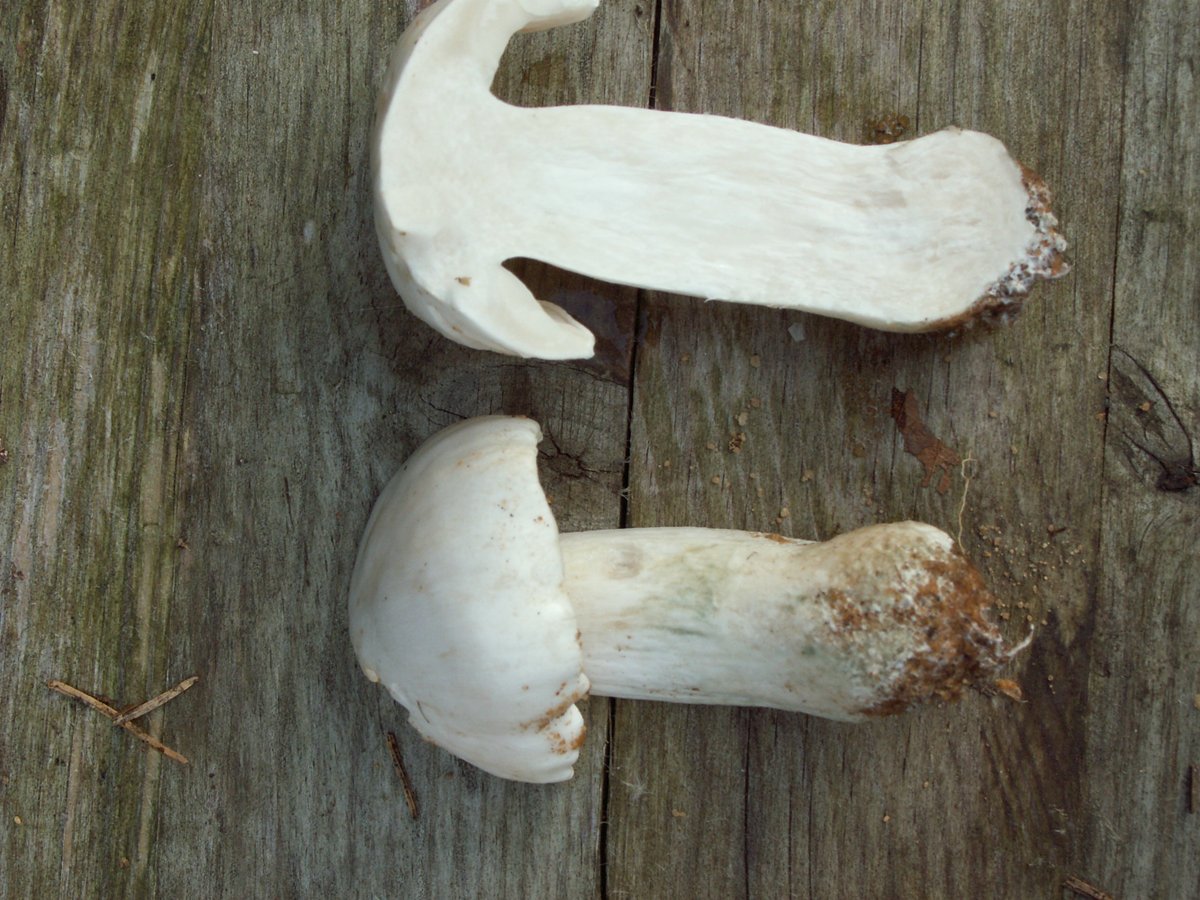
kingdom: Fungi
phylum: Basidiomycota
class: Agaricomycetes
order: Agaricales
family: Tricholomataceae
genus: Tricholoma
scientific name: Tricholoma columbetta
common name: silke-ridderhat
